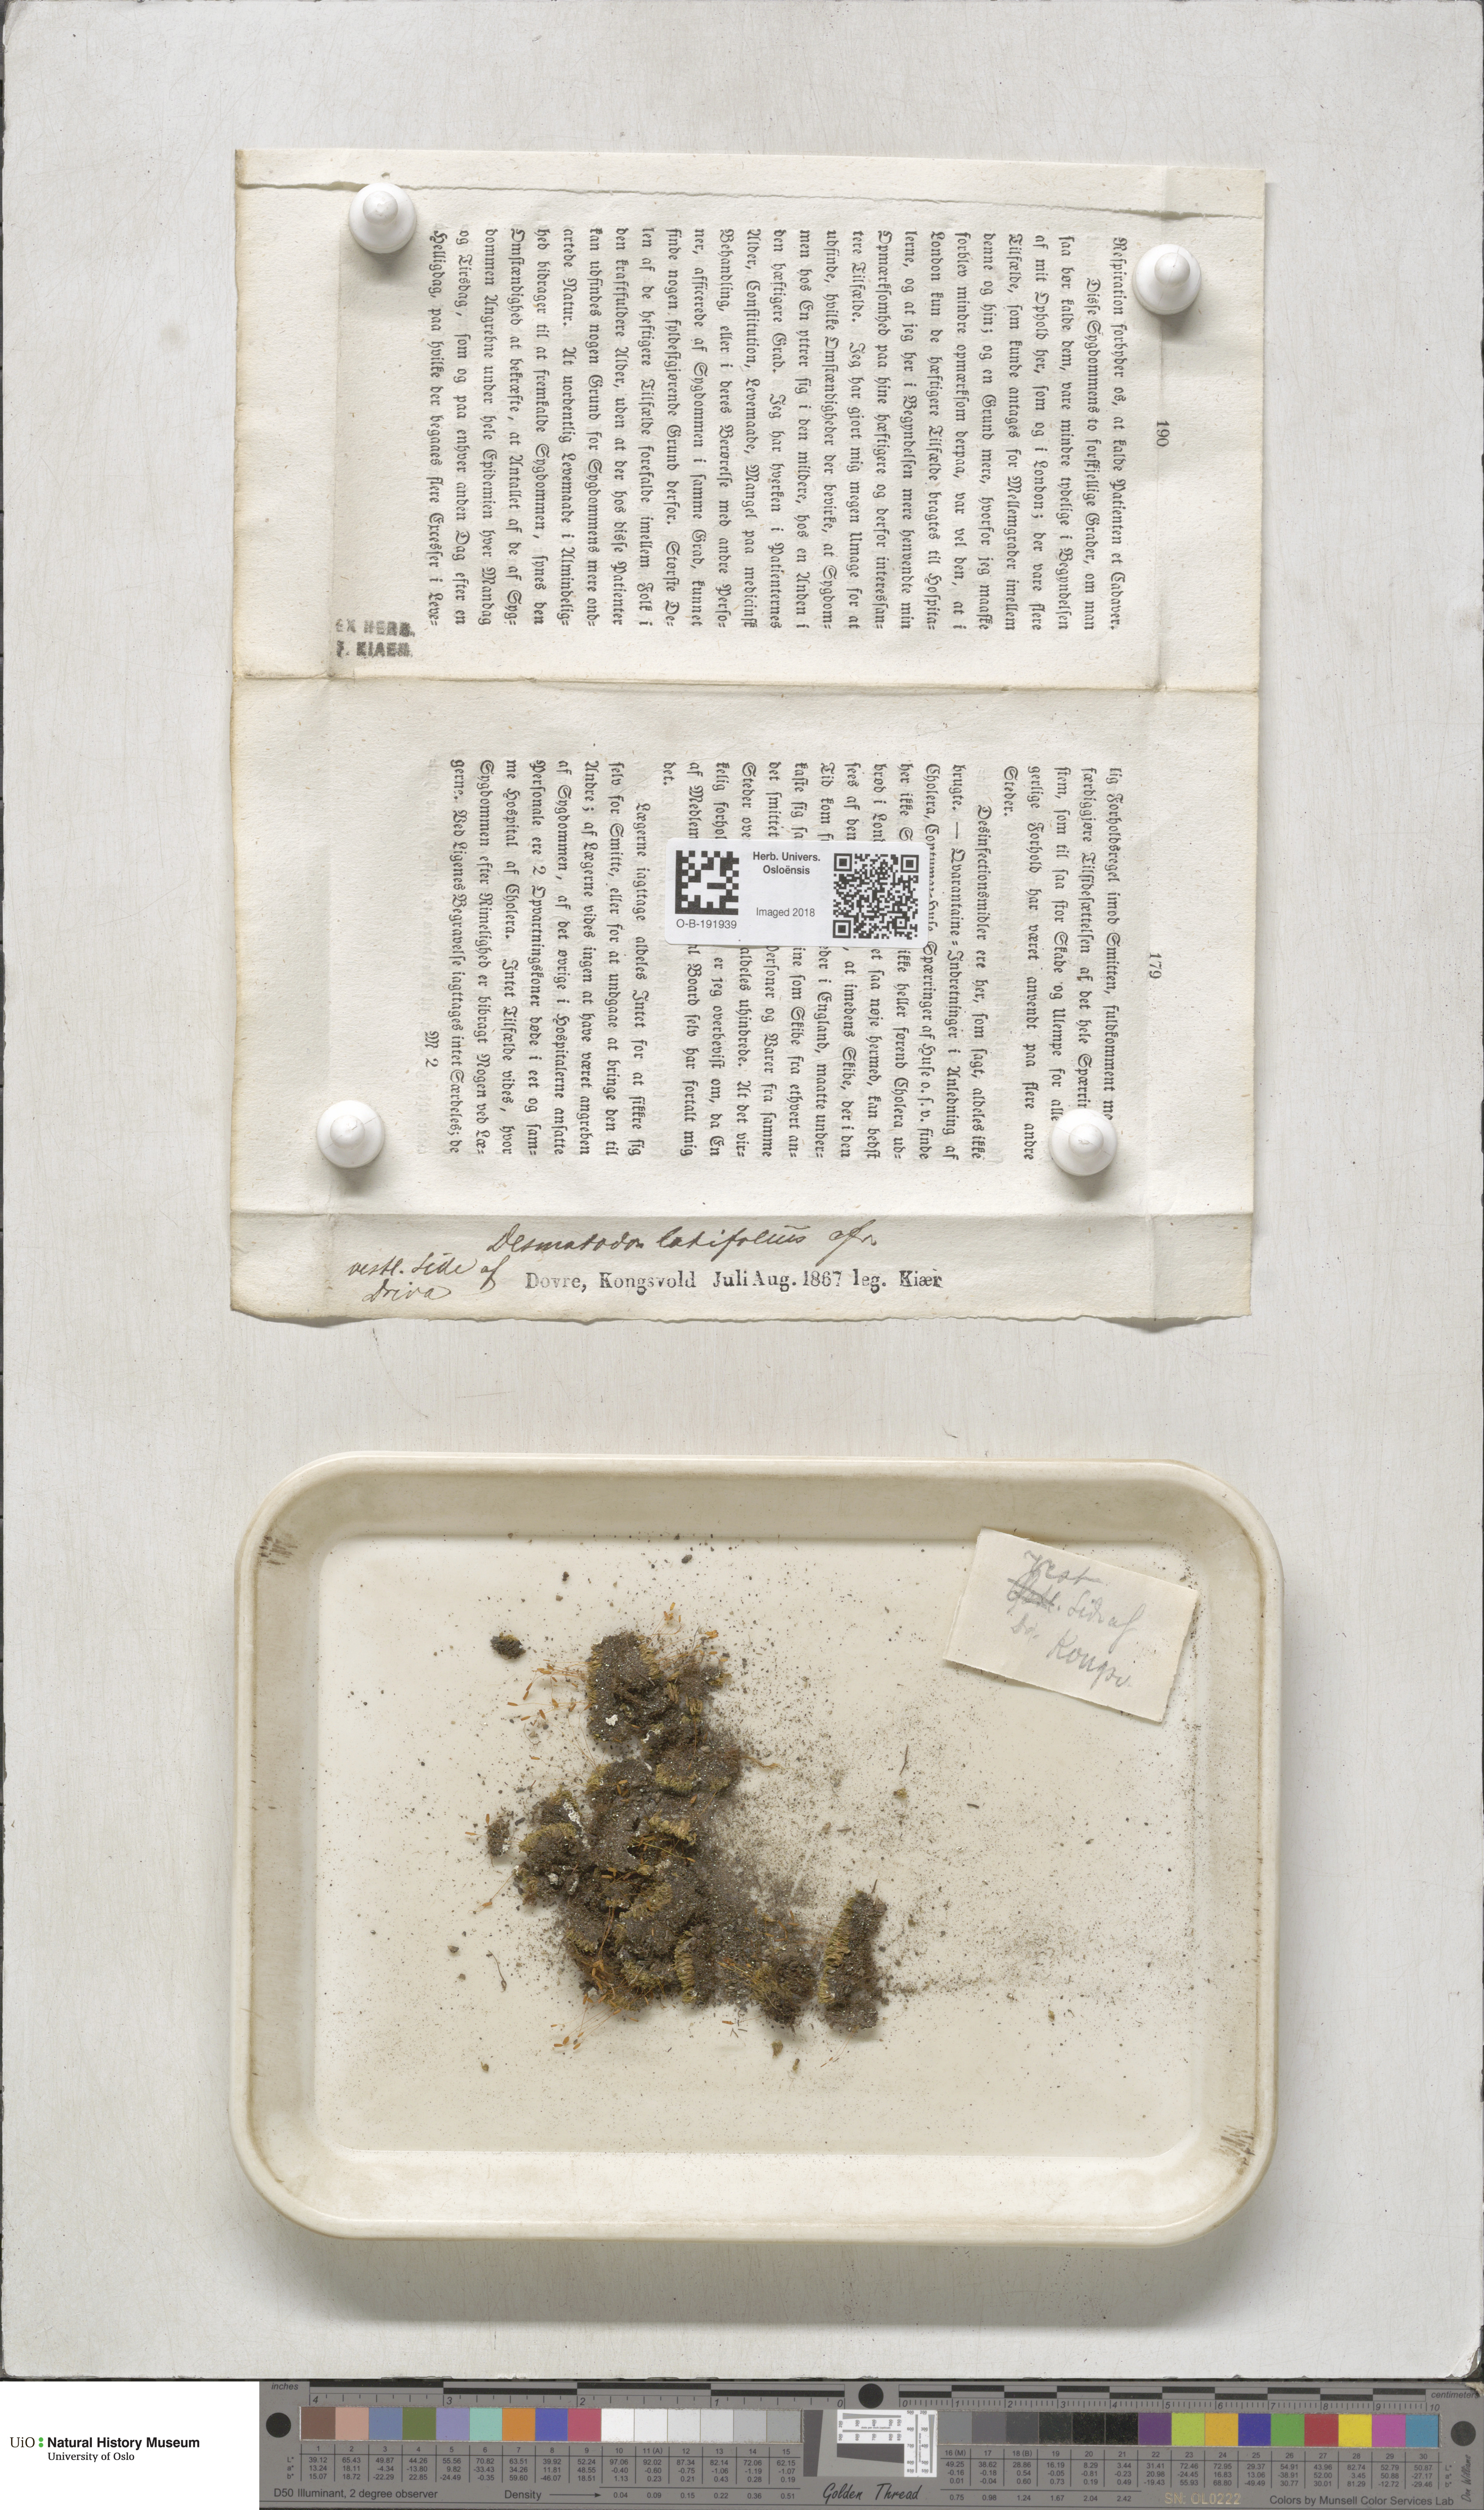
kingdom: Plantae
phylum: Bryophyta
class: Bryopsida
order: Pottiales
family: Pottiaceae
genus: Tortula
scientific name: Tortula hoppeana
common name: Hoppe's screw moss
